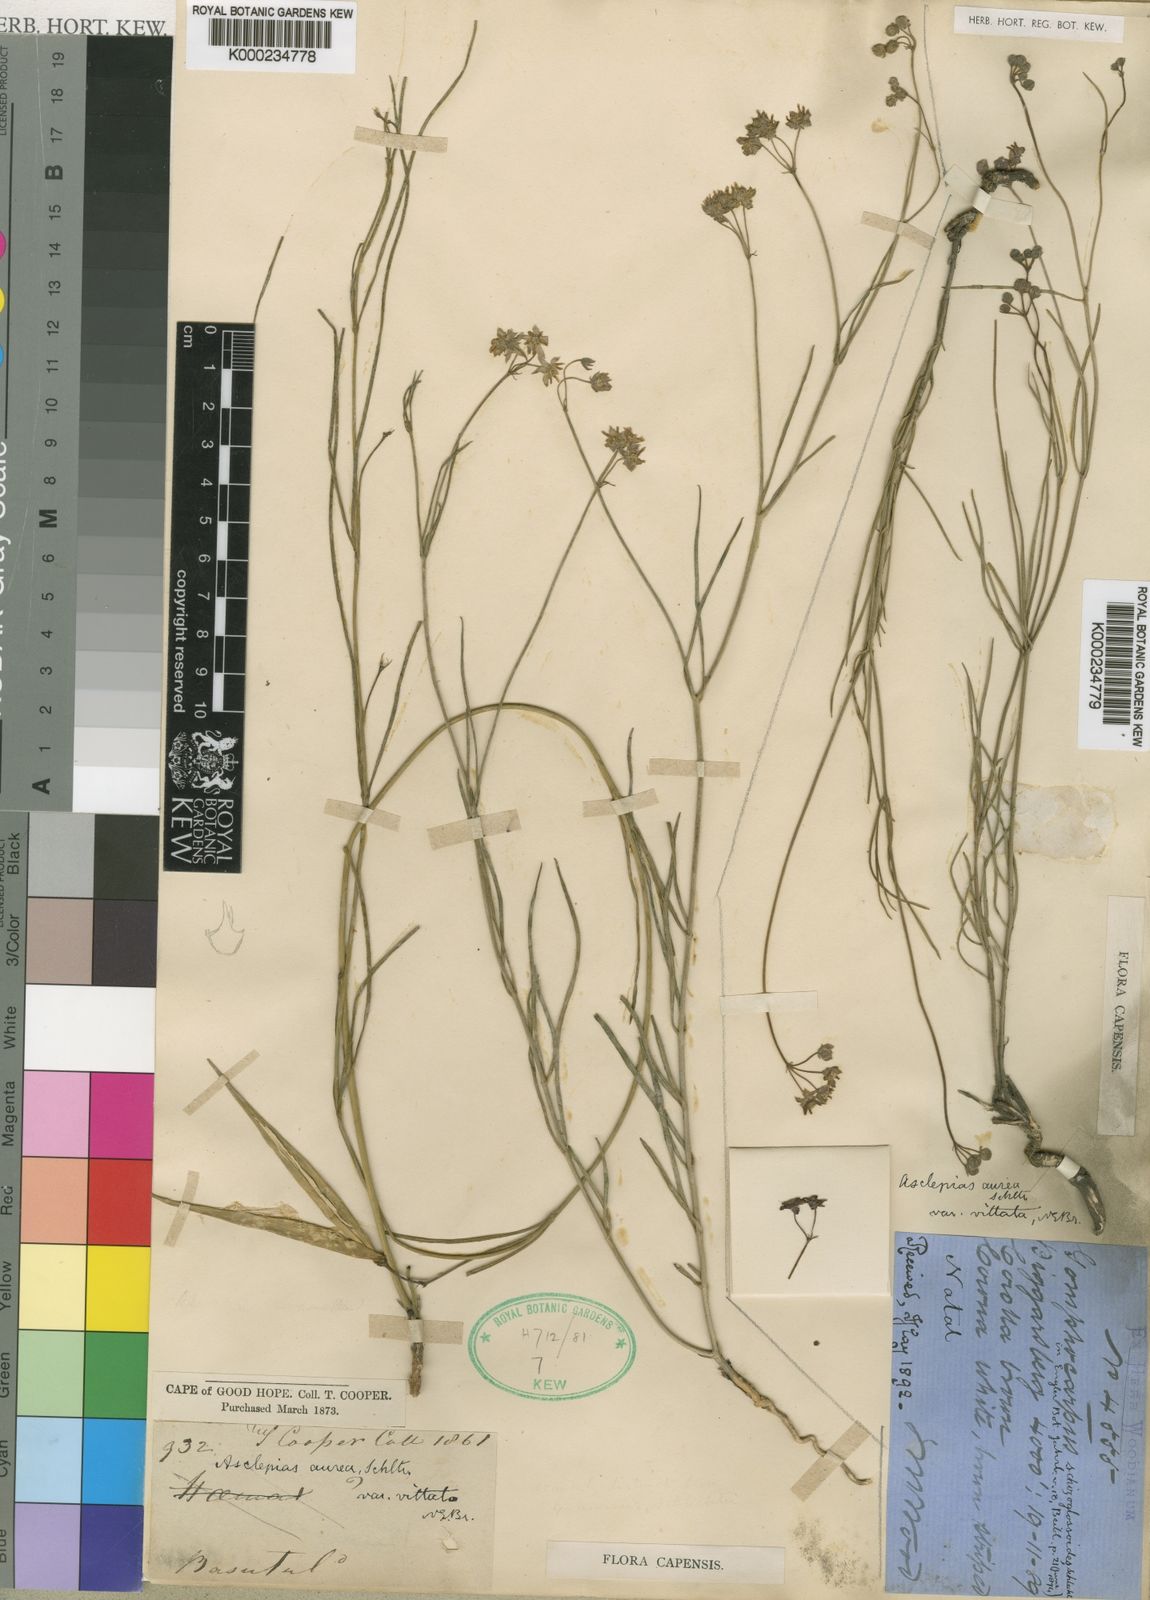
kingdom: Plantae
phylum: Tracheophyta
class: Magnoliopsida
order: Gentianales
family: Apocynaceae
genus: Asclepias
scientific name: Asclepias aurea
